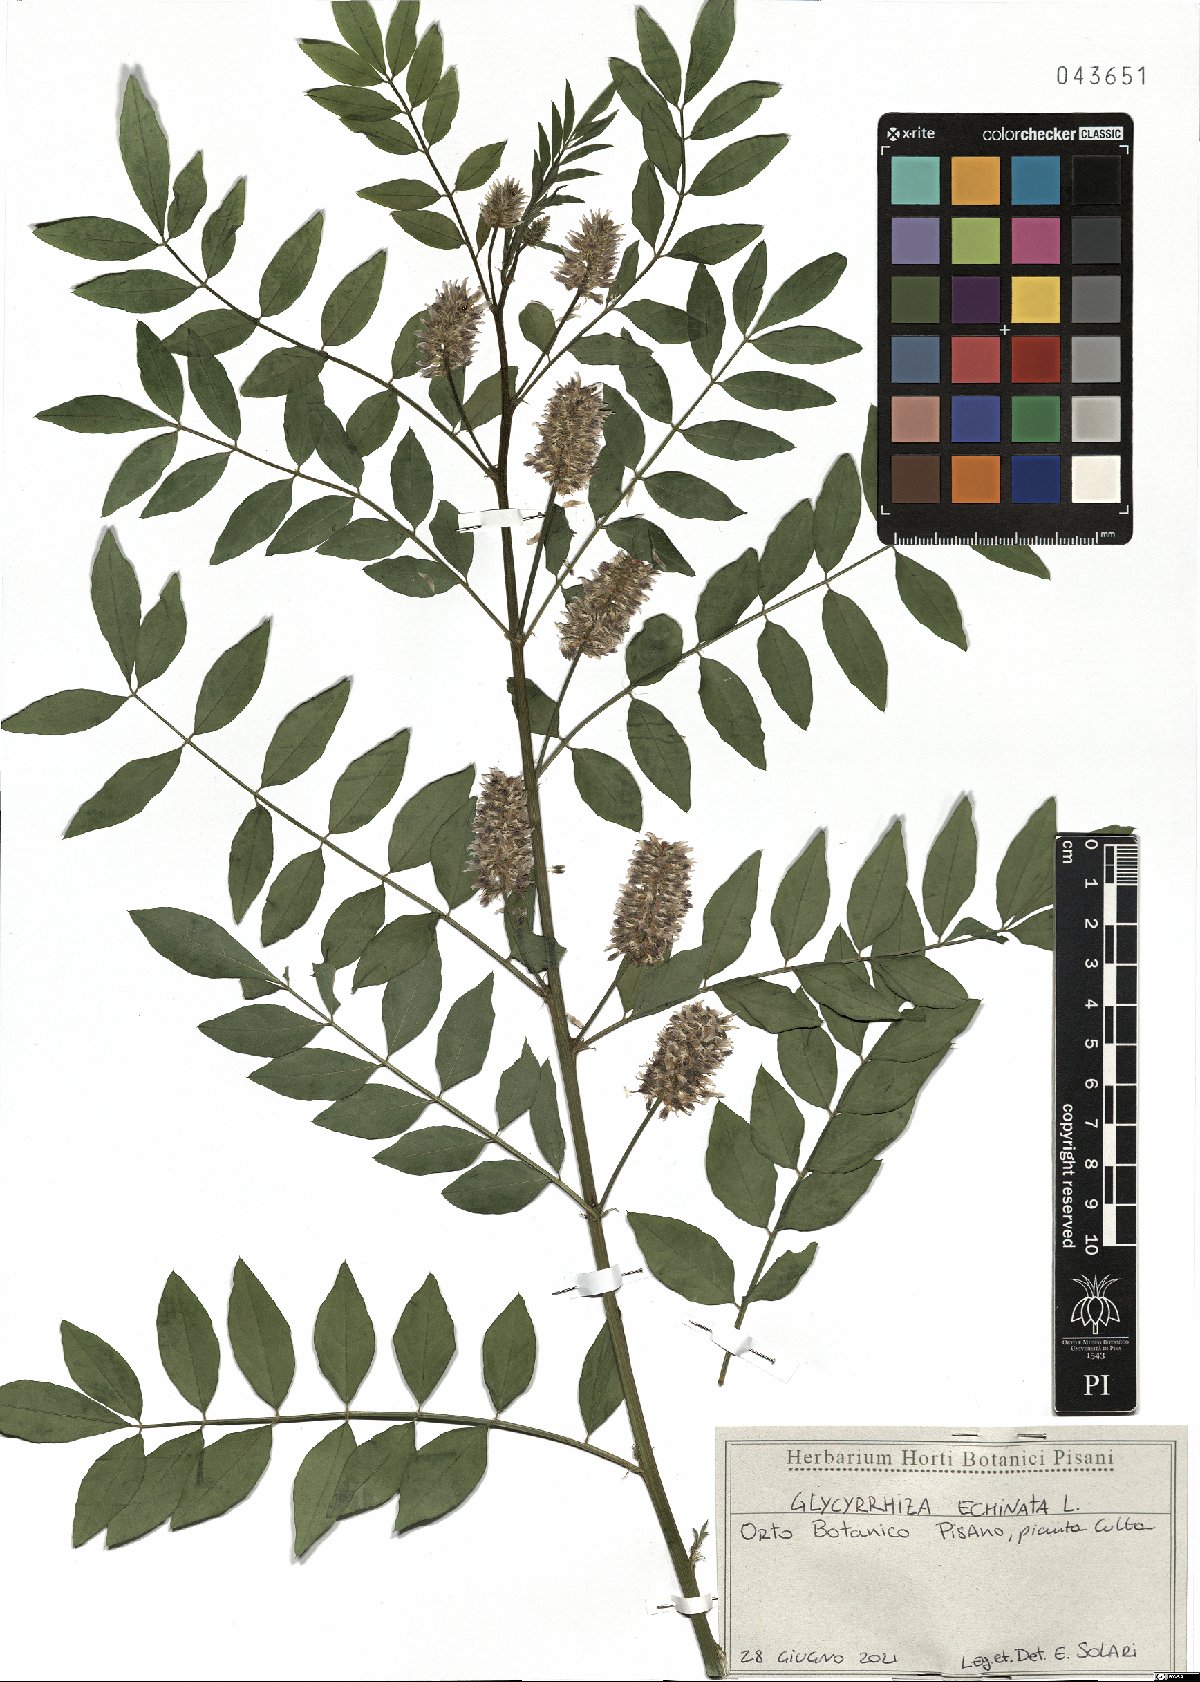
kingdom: Plantae
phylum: Tracheophyta
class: Magnoliopsida
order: Fabales
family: Fabaceae
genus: Glycyrrhiza
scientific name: Glycyrrhiza echinata
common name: German liquorice
